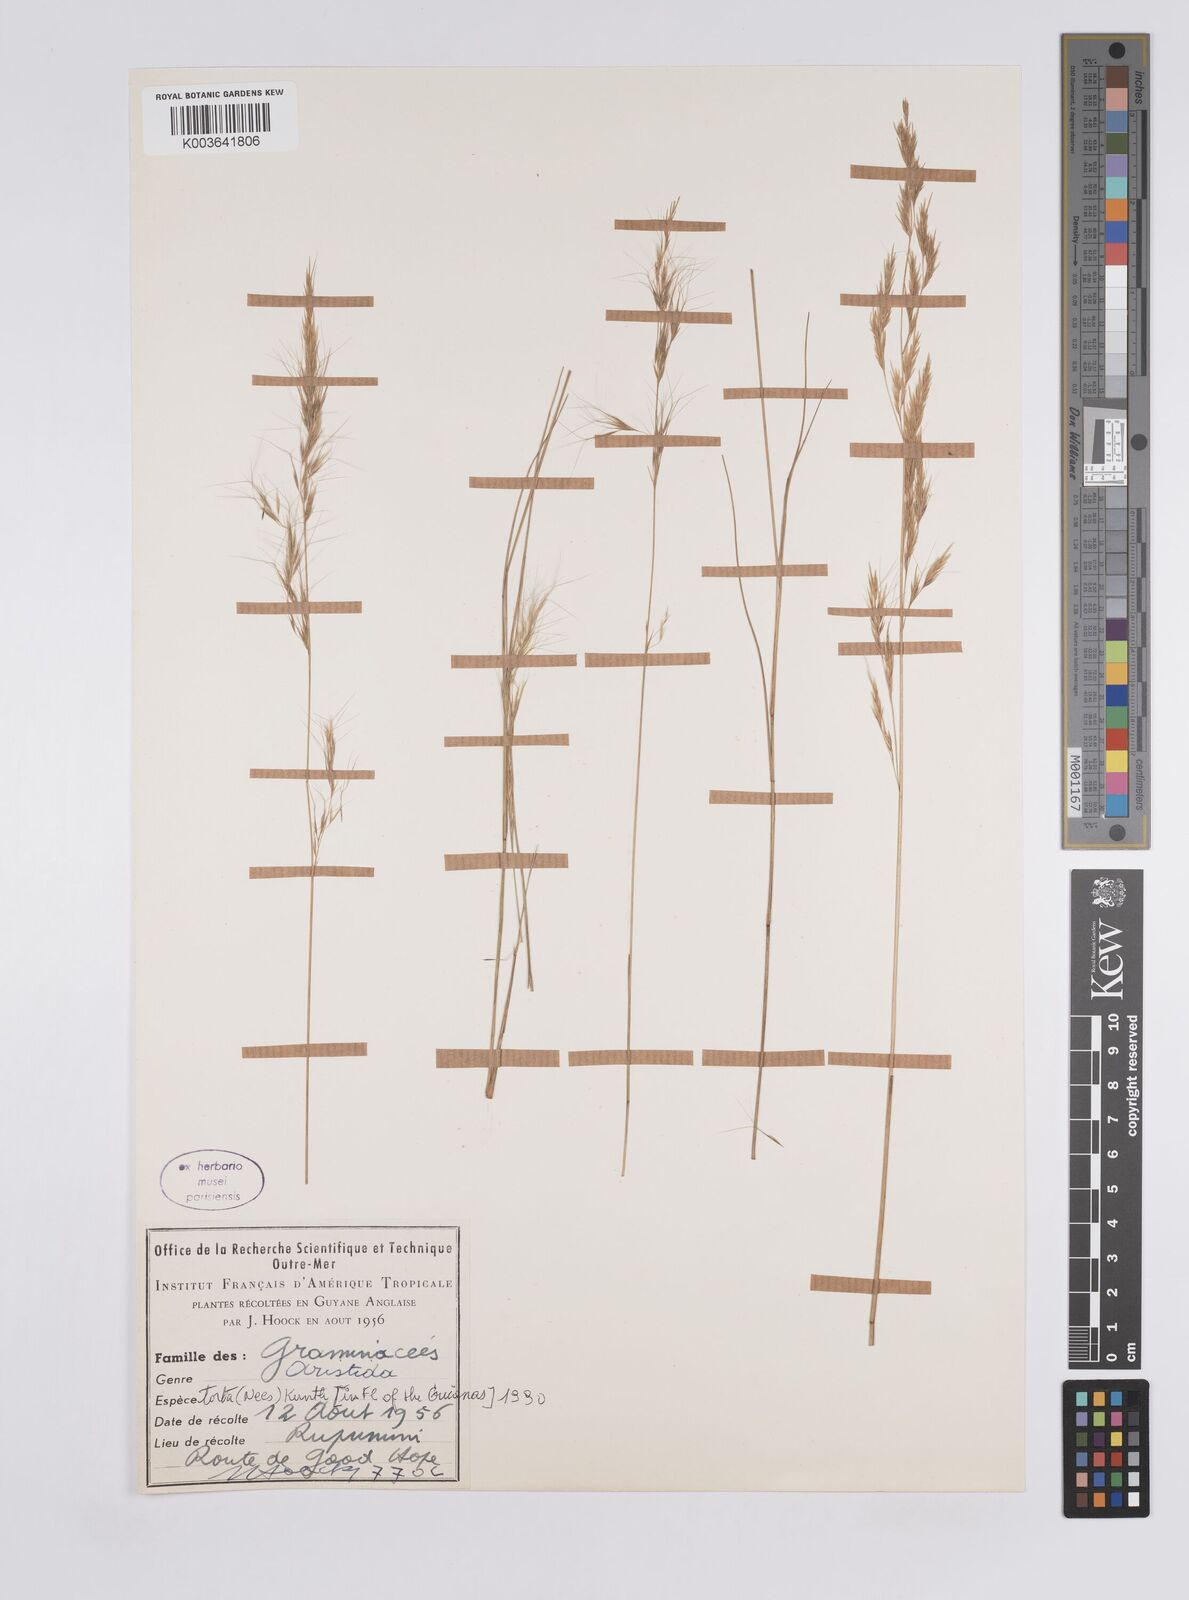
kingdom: Plantae
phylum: Tracheophyta
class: Liliopsida
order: Poales
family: Poaceae
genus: Aristida
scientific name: Aristida torta
